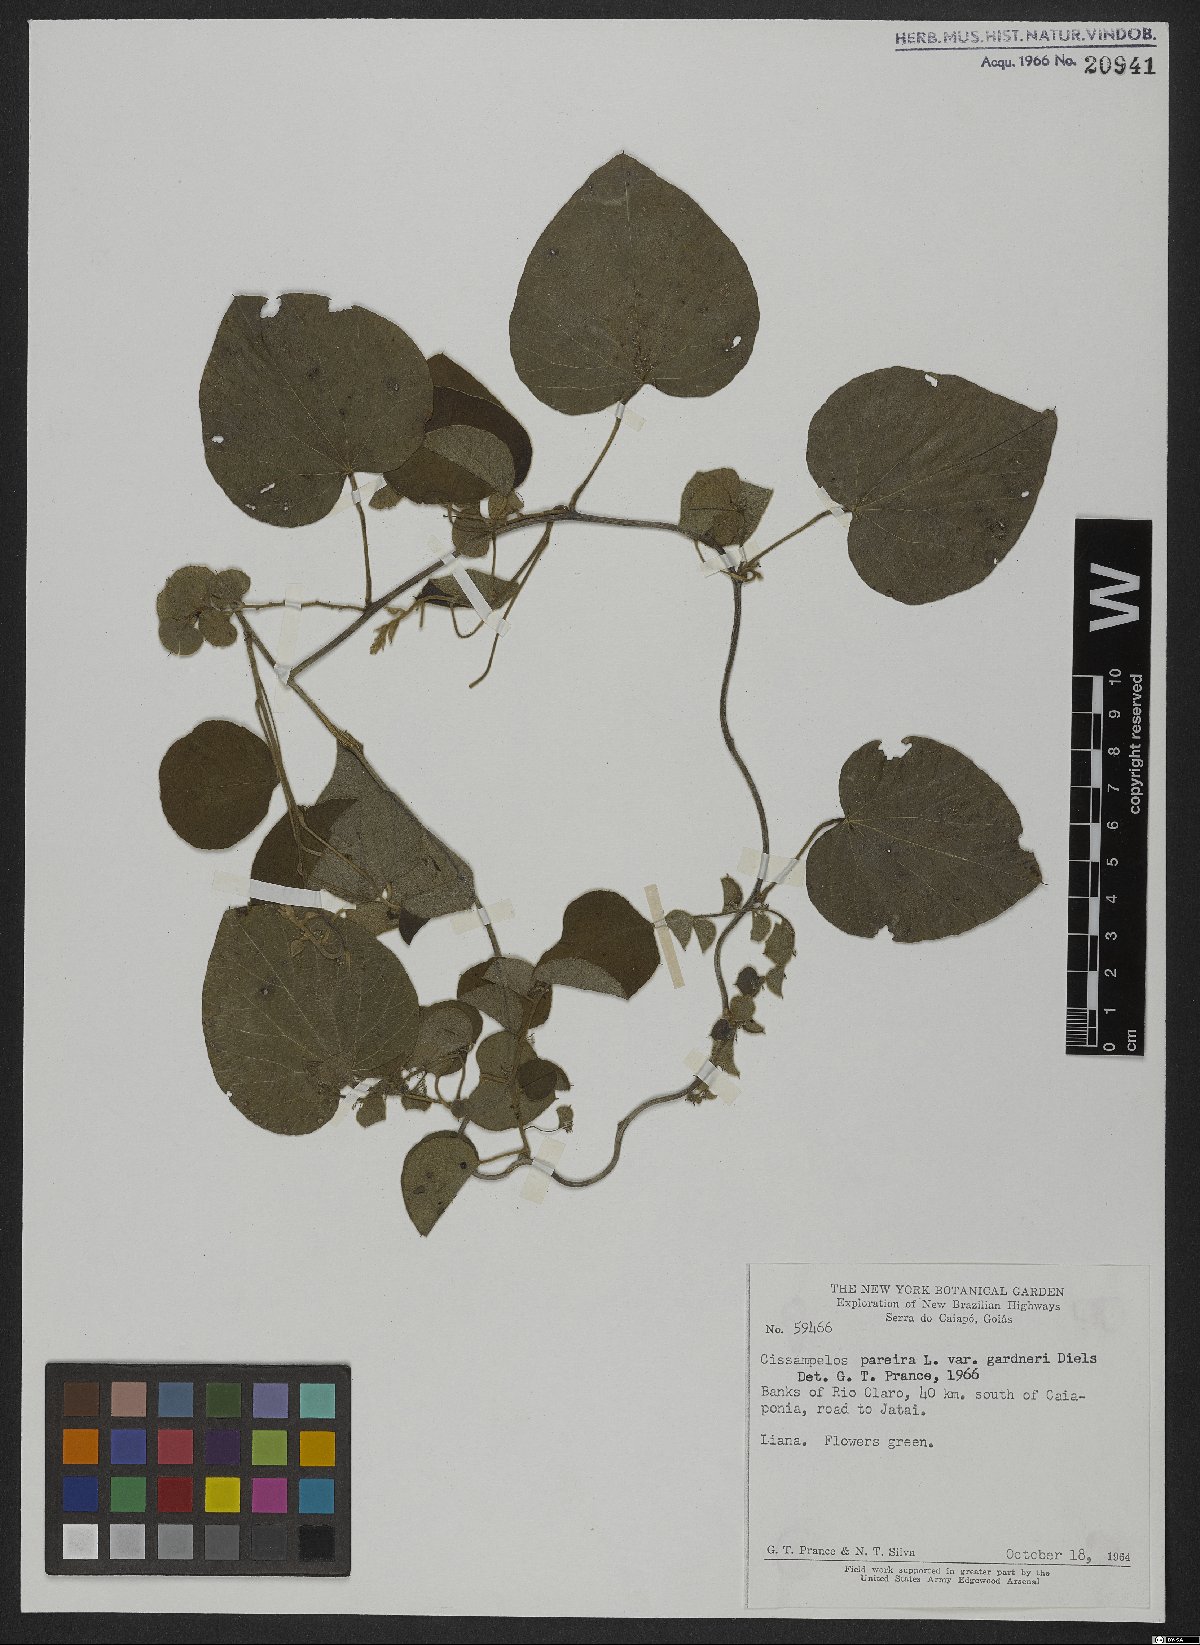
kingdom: Plantae
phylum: Tracheophyta
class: Magnoliopsida
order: Ranunculales
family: Menispermaceae
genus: Cissampelos
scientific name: Cissampelos pareira
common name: Velvetleaf
